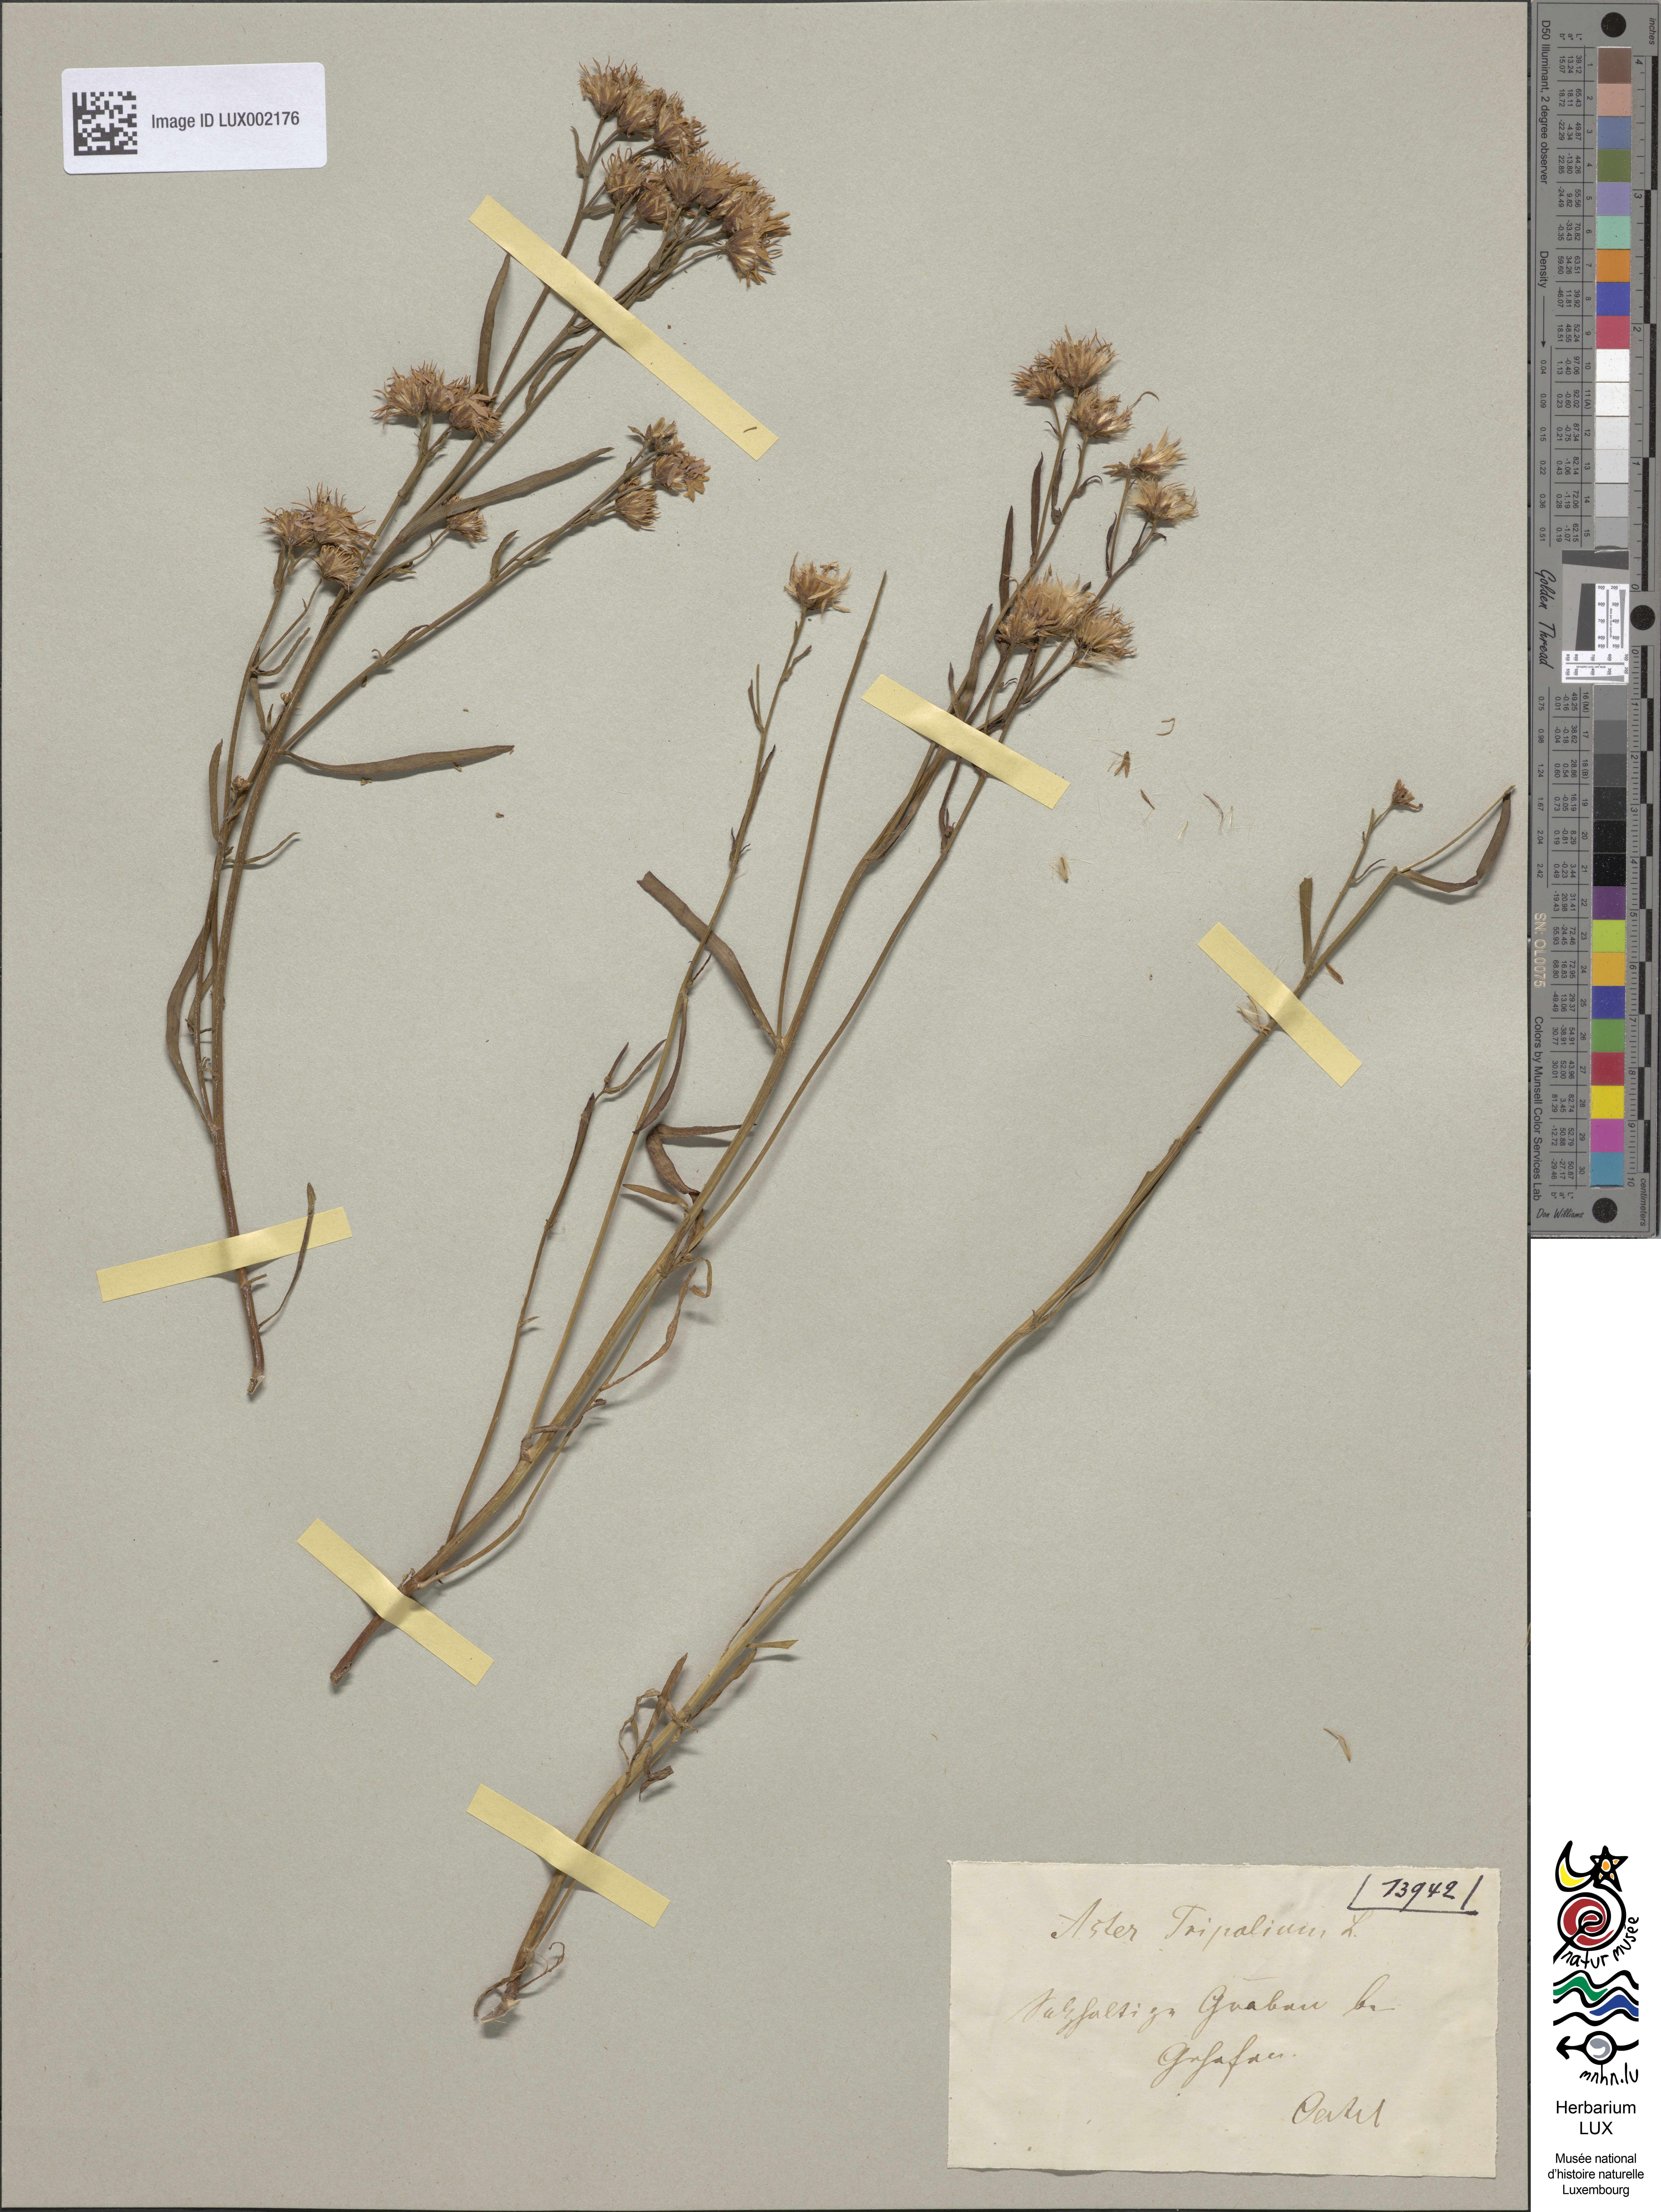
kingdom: Plantae
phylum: Tracheophyta
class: Magnoliopsida
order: Asterales
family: Asteraceae
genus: Tripolium
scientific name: Tripolium pannonicum
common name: Sea aster
